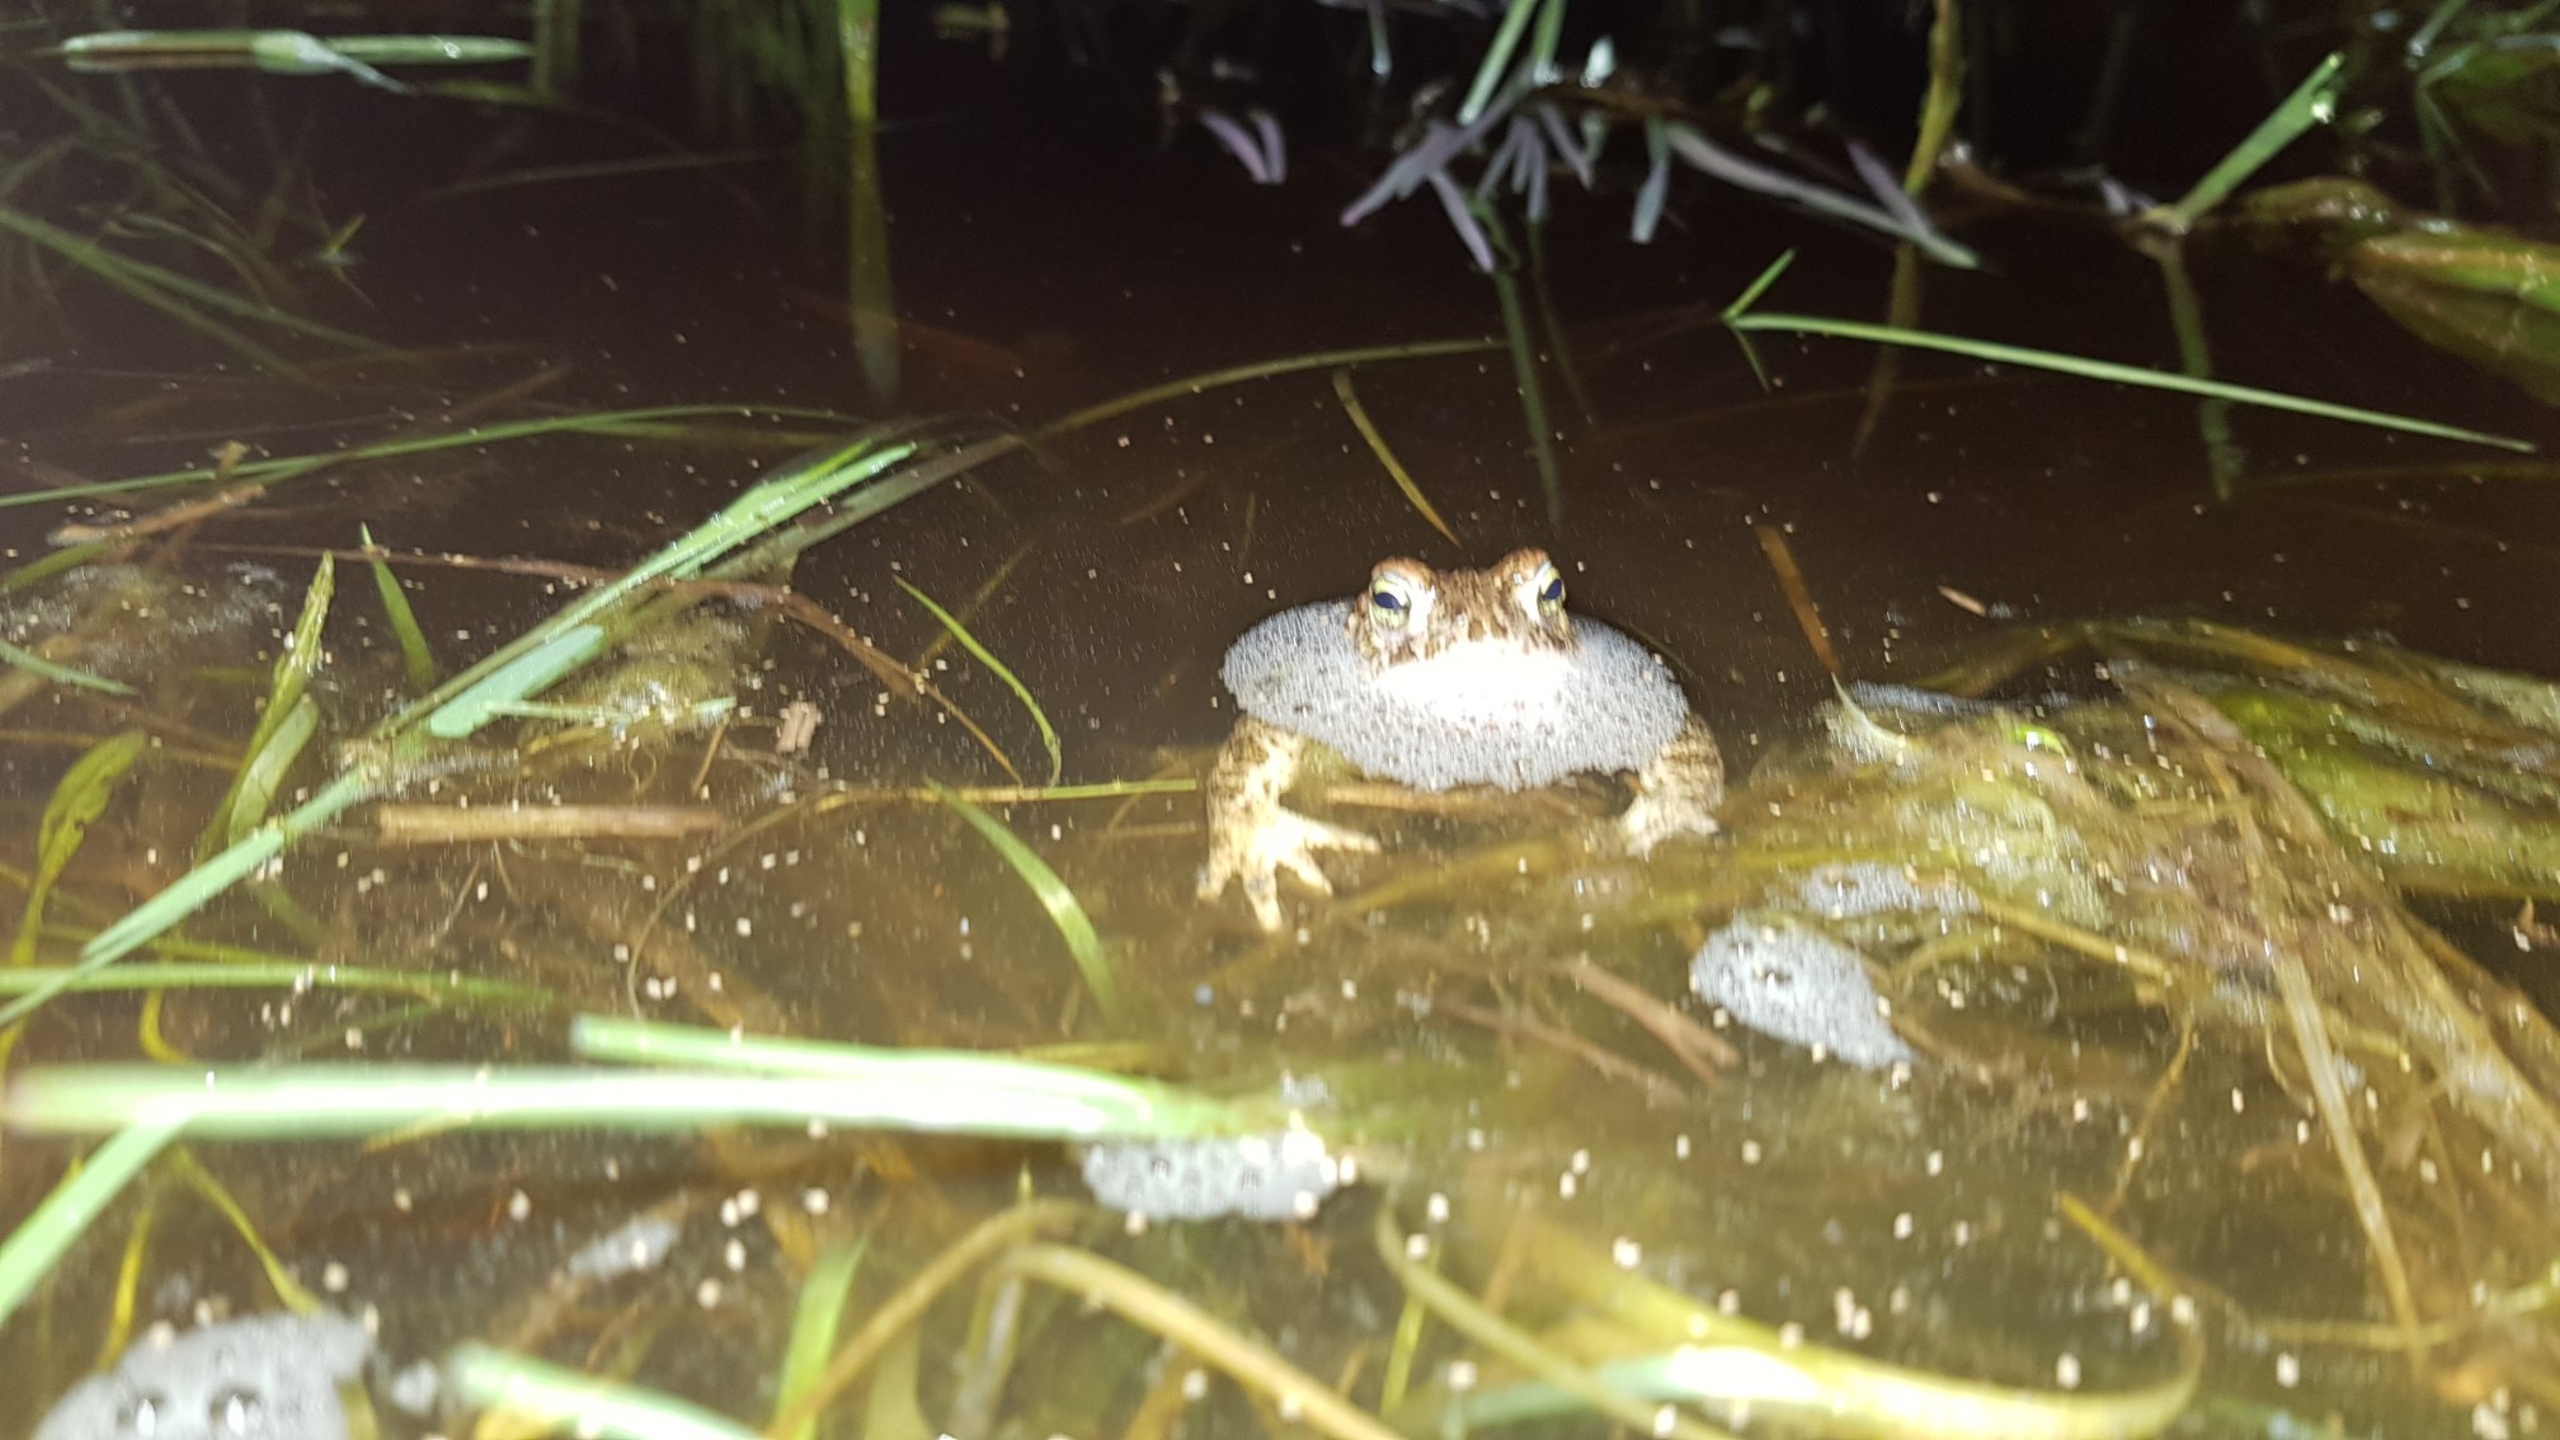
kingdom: Animalia
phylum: Chordata
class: Amphibia
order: Anura
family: Bufonidae
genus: Epidalea
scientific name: Epidalea calamita
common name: Strandtudse
